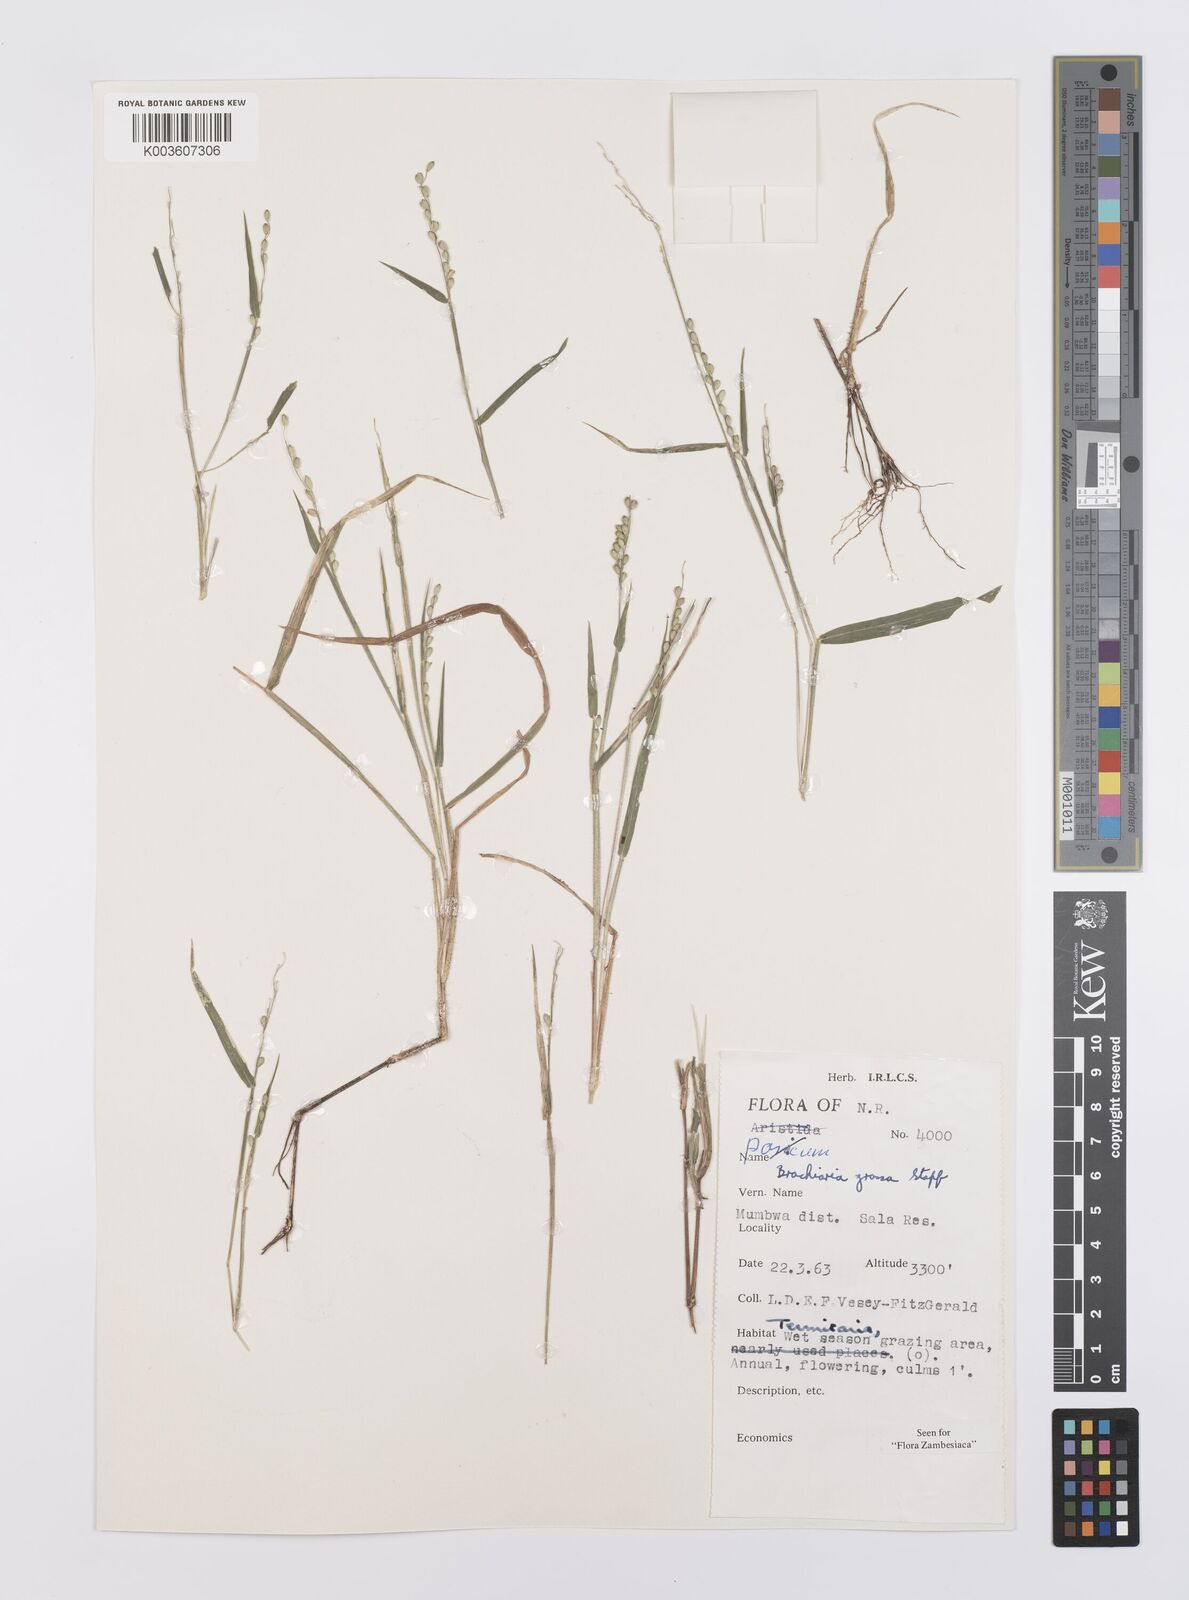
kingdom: Plantae
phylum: Tracheophyta
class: Liliopsida
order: Poales
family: Poaceae
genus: Urochloa
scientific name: Urochloa Brachiaria grossa
